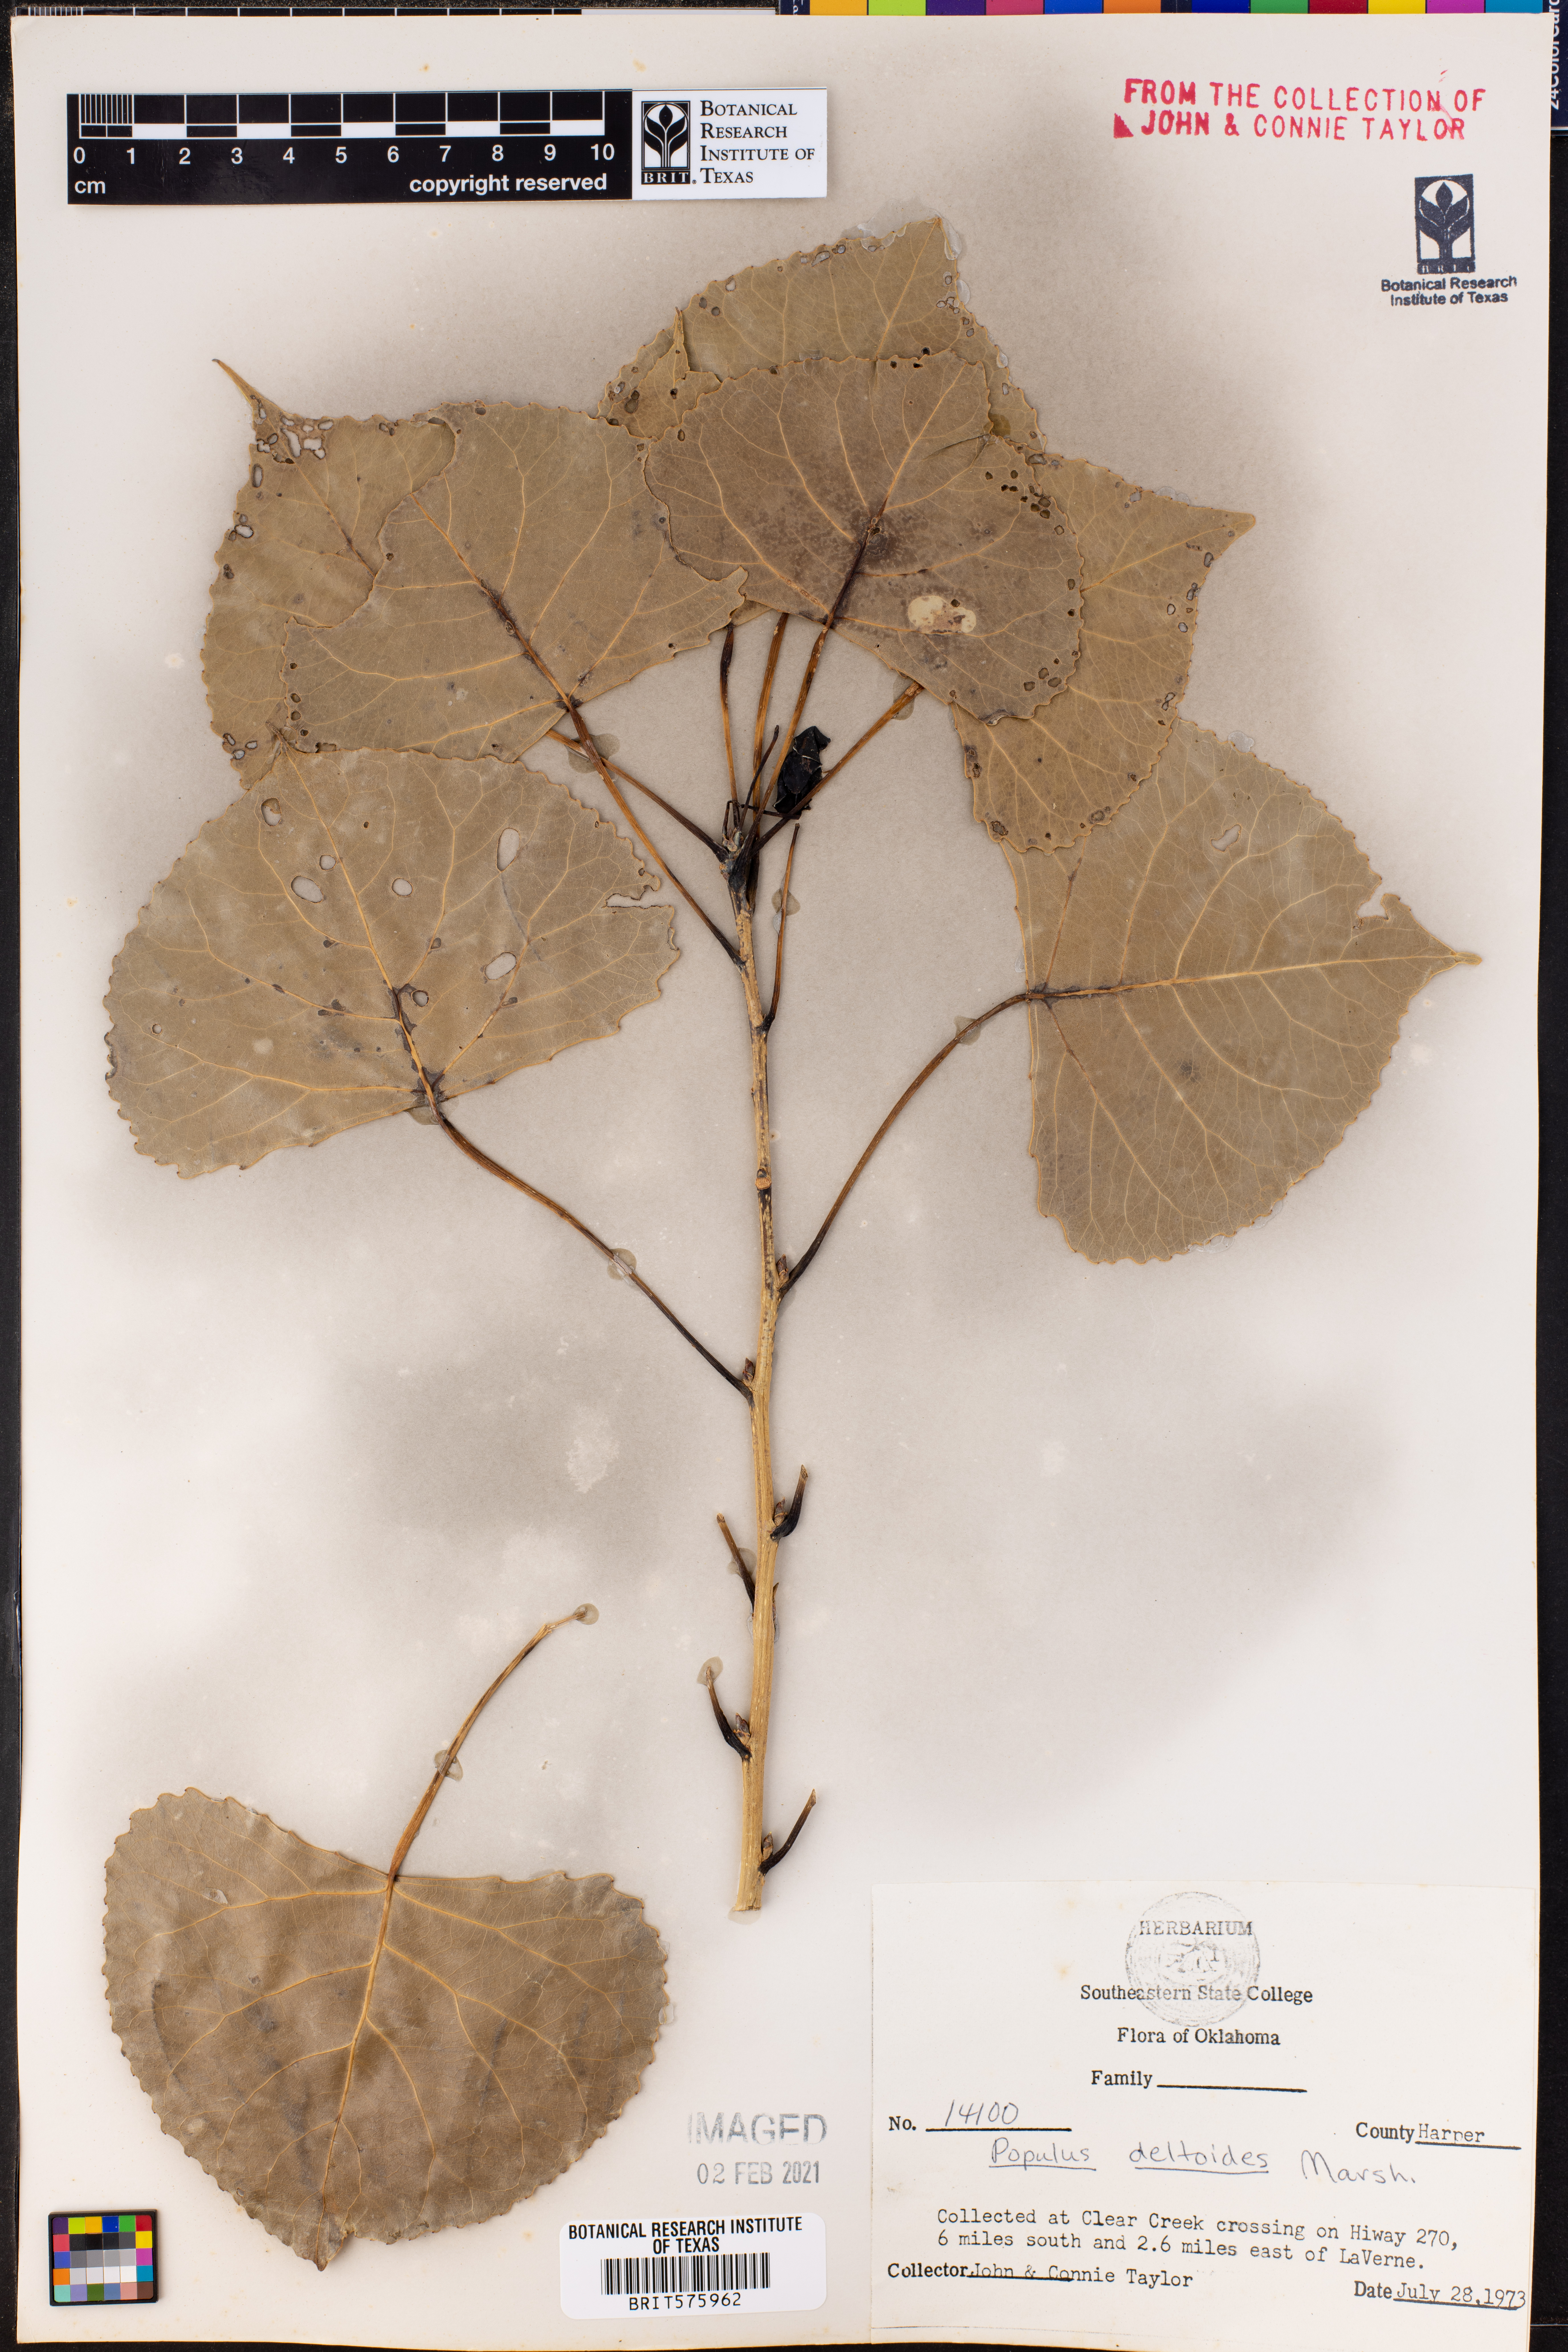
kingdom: Plantae
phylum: Tracheophyta
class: Magnoliopsida
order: Malpighiales
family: Salicaceae
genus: Populus
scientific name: Populus deltoides
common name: Eastern cottonwood
